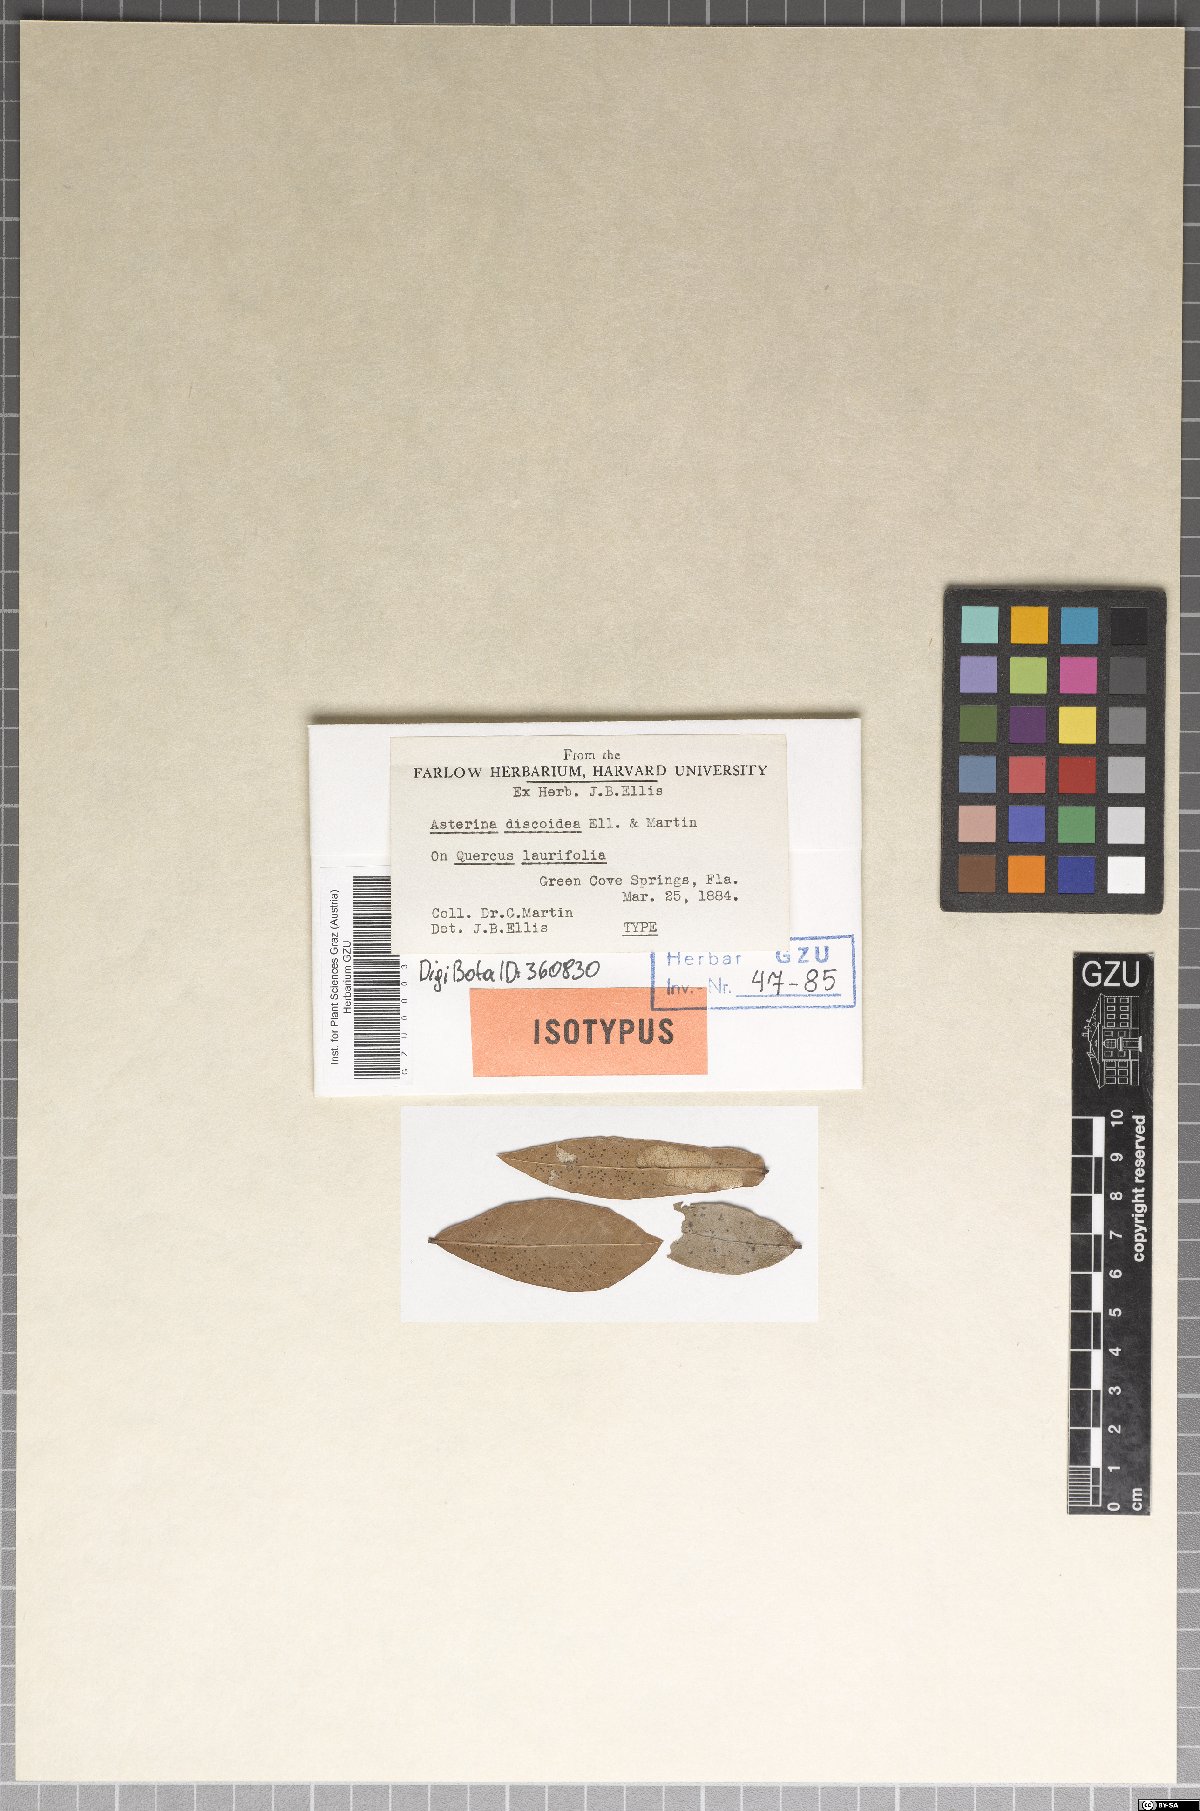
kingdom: Fungi
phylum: Ascomycota
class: Dothideomycetes
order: Mycosphaerellales
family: Schizothyriaceae
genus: Schizothyrium
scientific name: Schizothyrium discoideum
